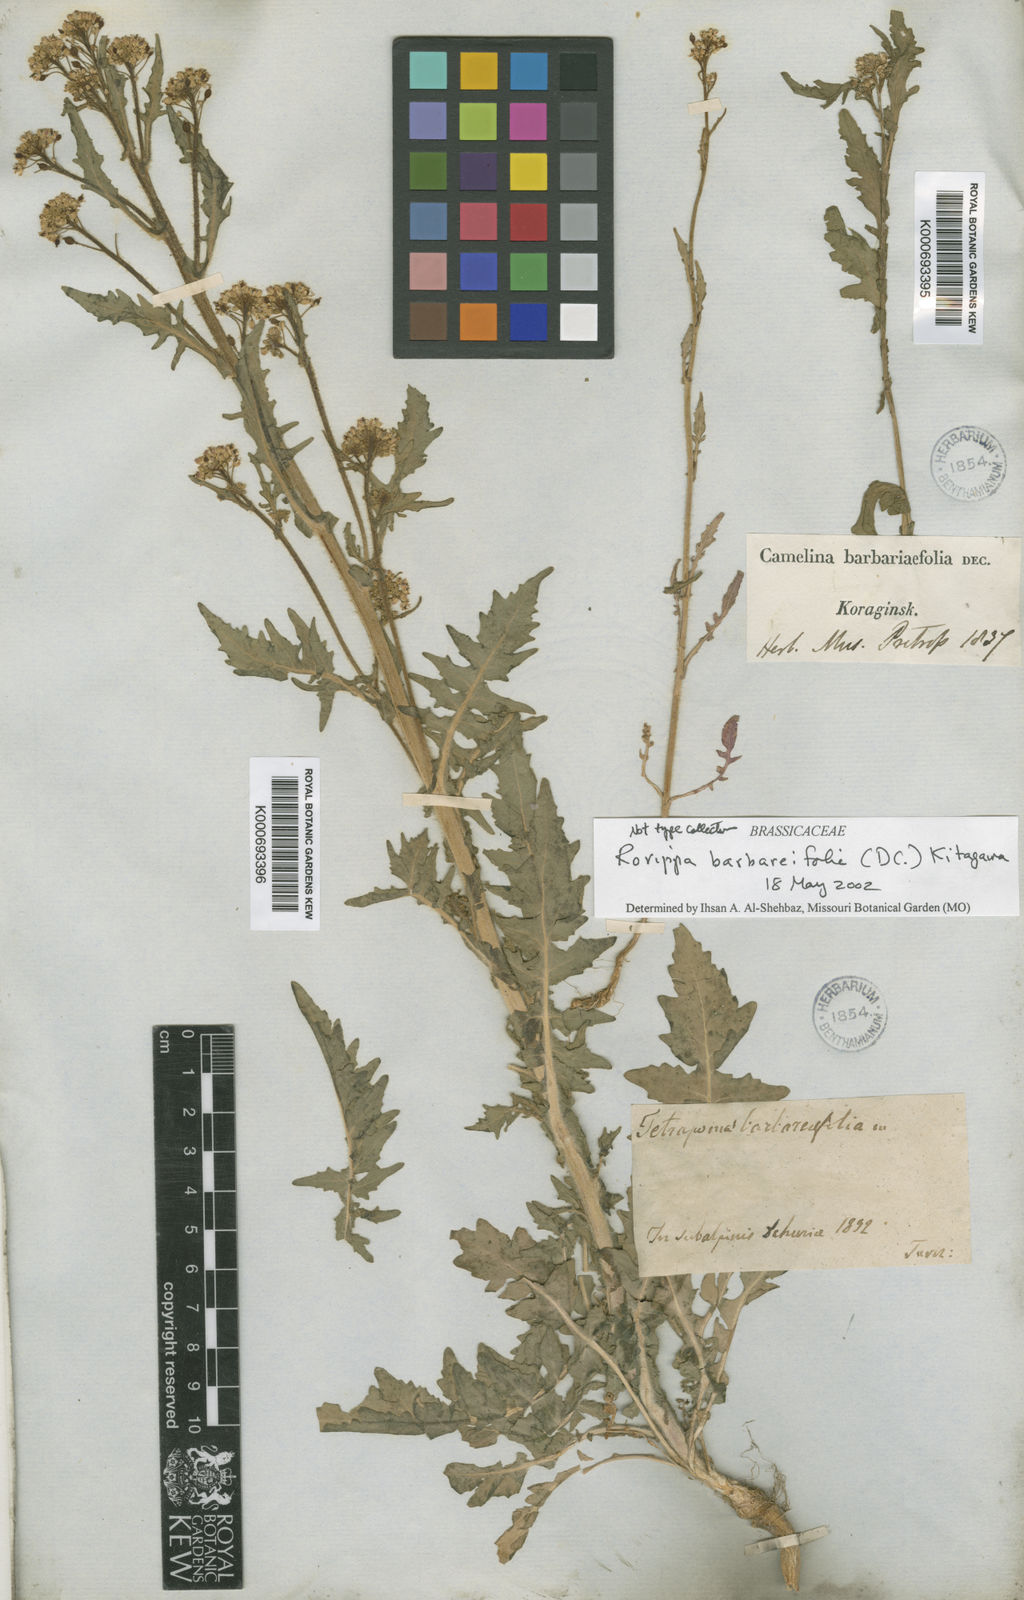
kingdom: Plantae
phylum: Tracheophyta
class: Magnoliopsida
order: Brassicales
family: Brassicaceae
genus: Rorippa
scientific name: Rorippa
